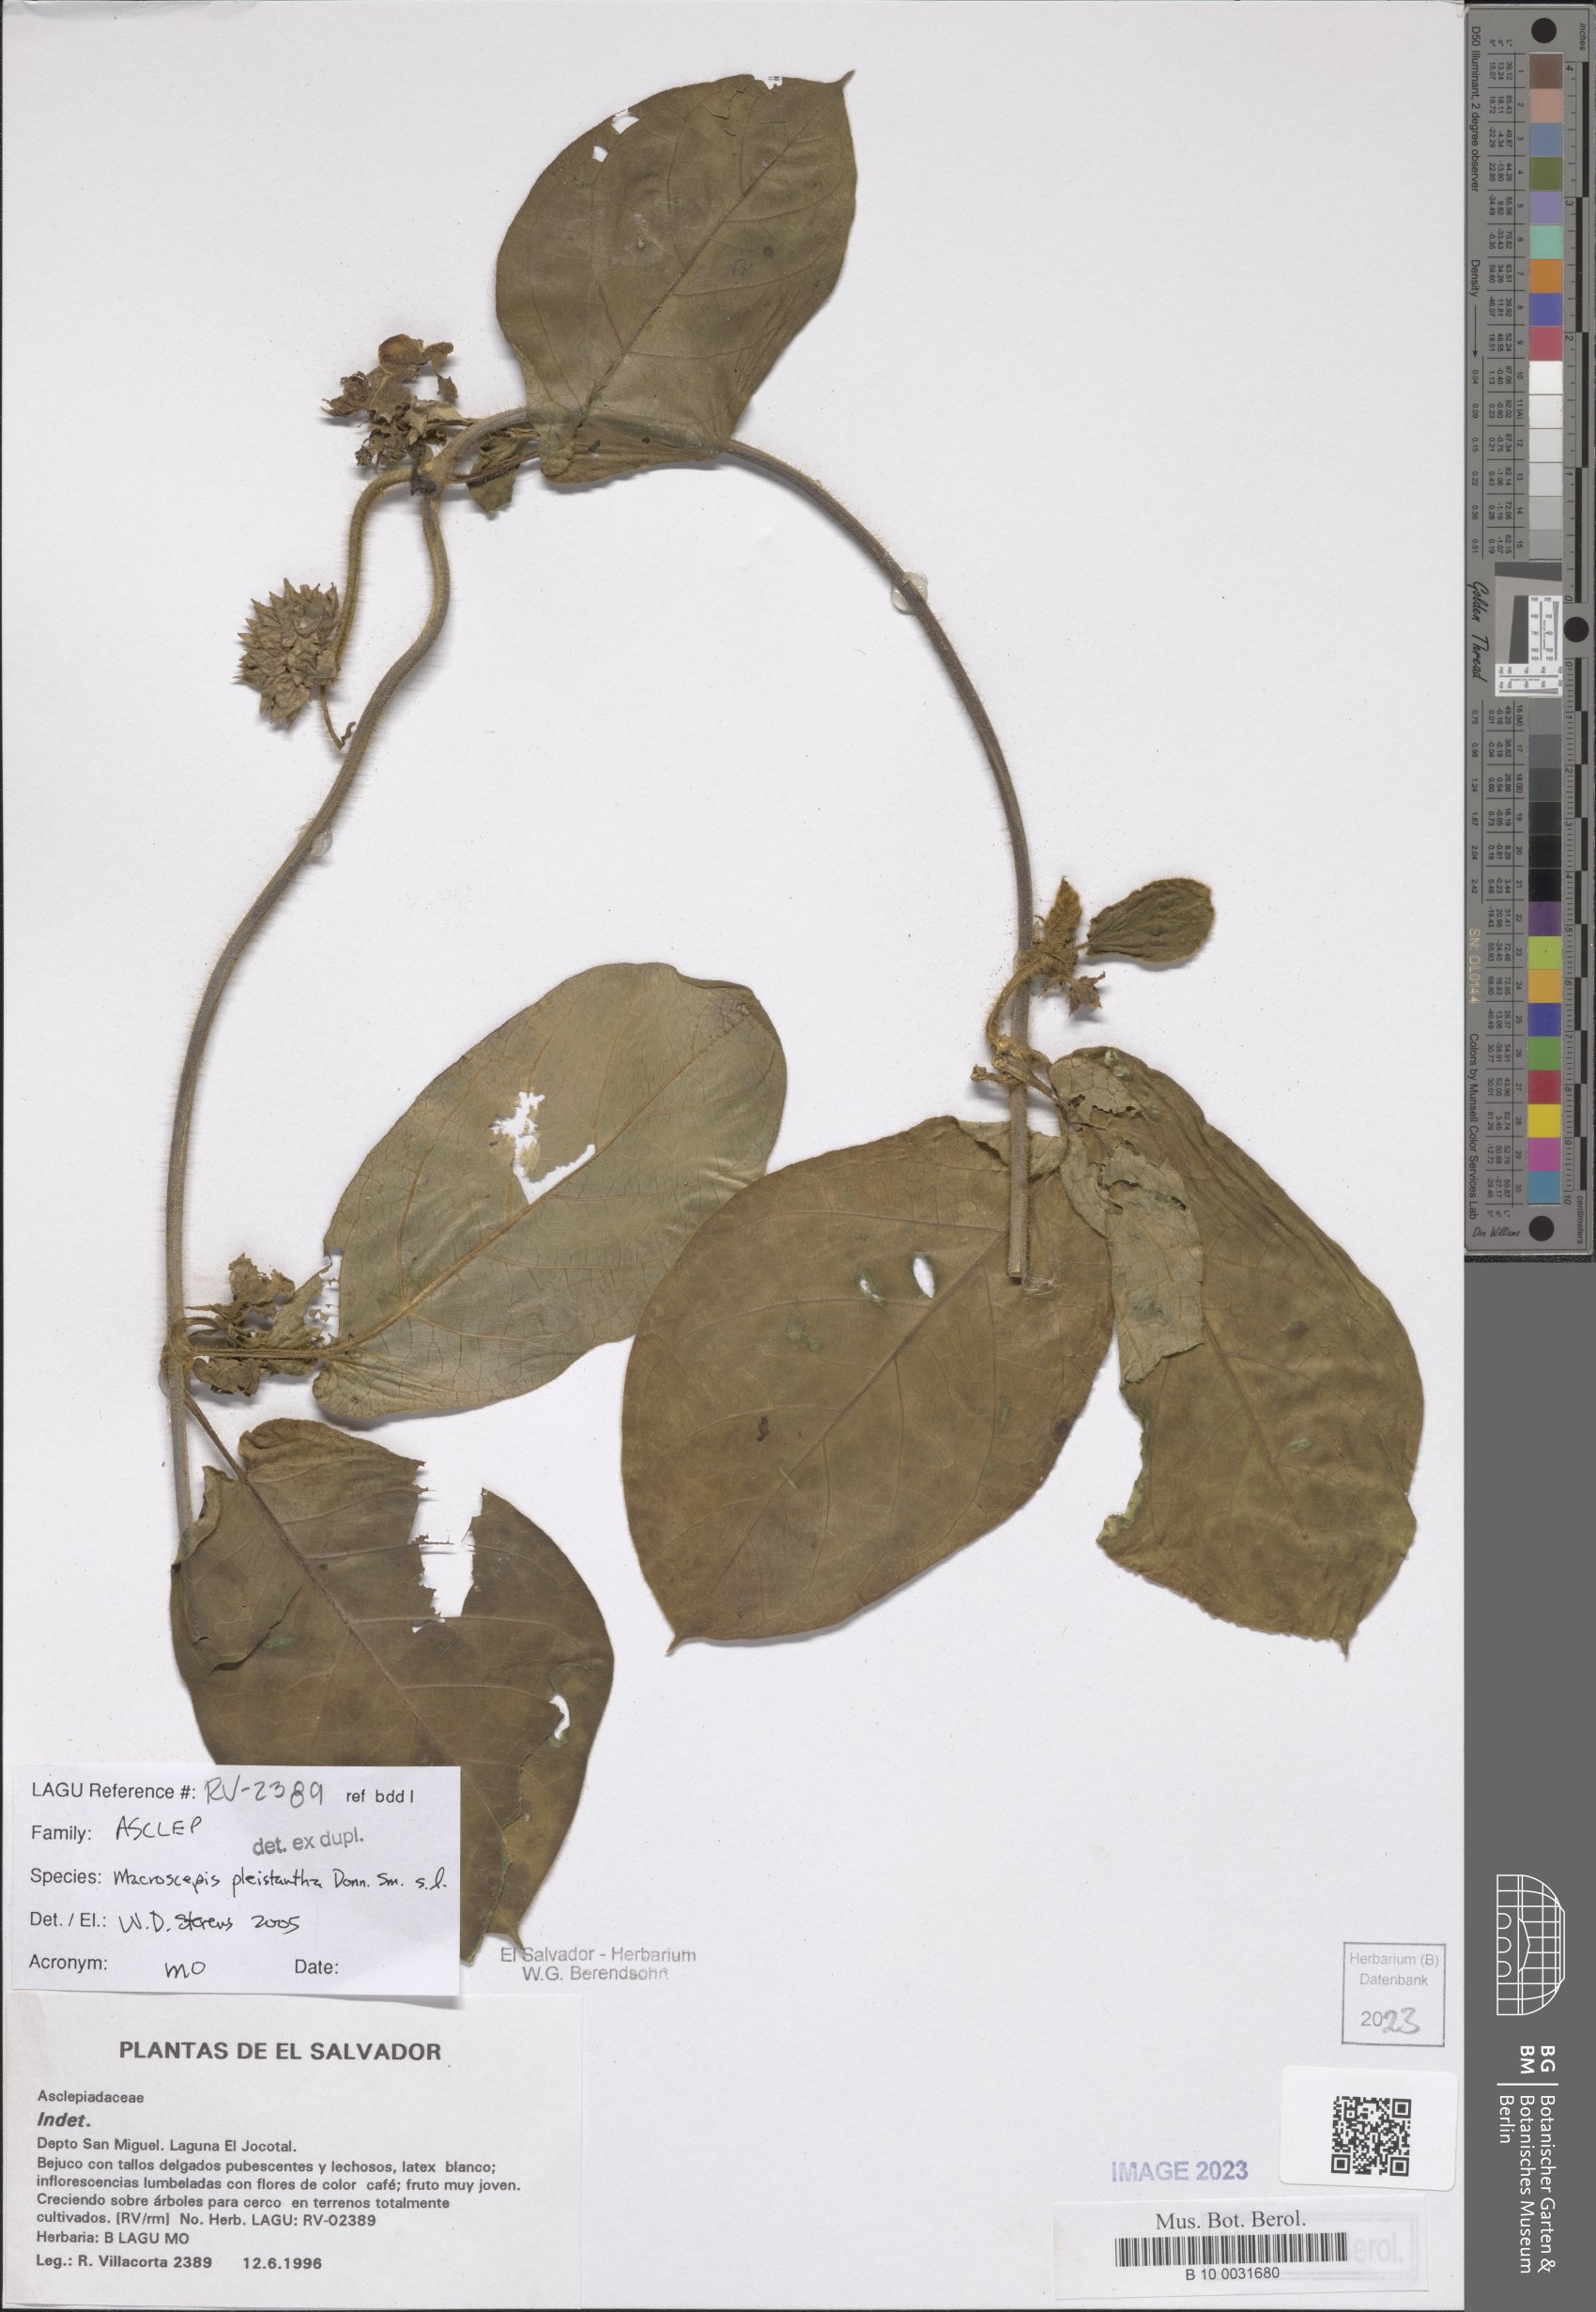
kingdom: Plantae
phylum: Tracheophyta
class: Magnoliopsida
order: Gentianales
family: Apocynaceae
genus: Macroscepis
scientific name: Macroscepis pleistantha
